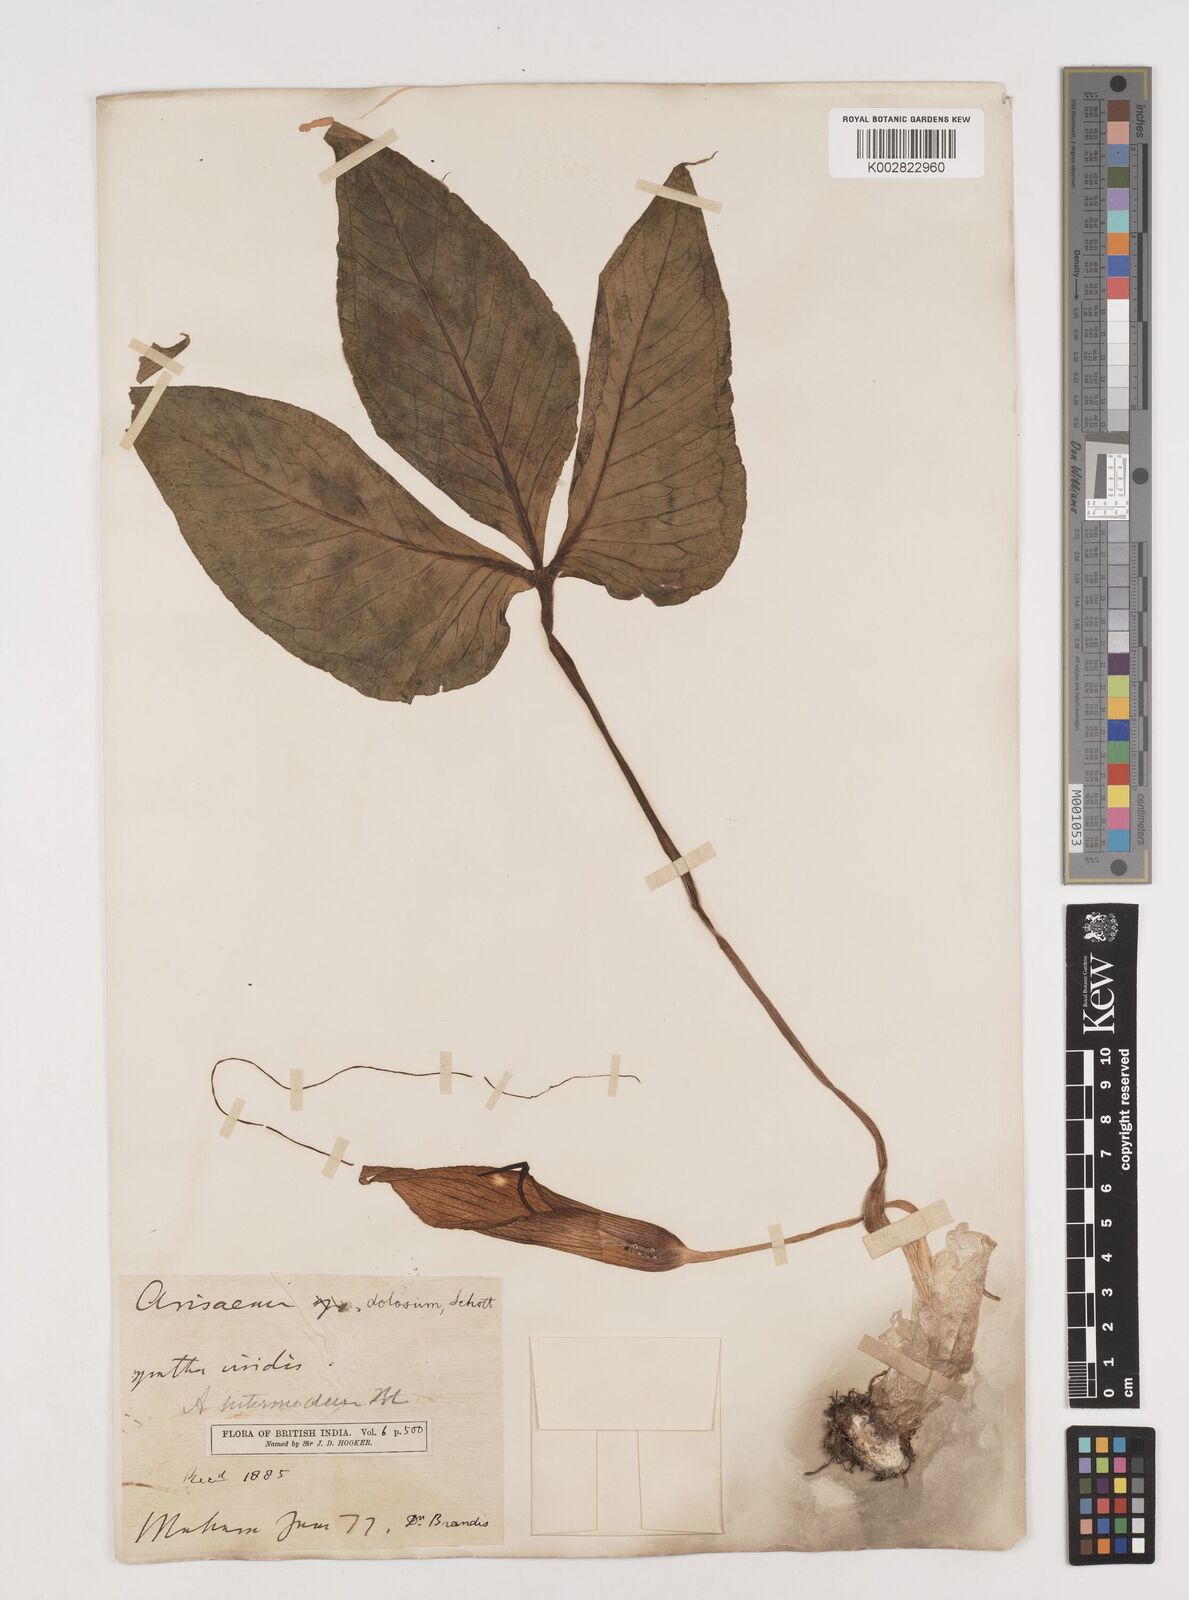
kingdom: Plantae
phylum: Tracheophyta
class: Liliopsida
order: Alismatales
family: Araceae
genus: Arisaema
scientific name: Arisaema intermedium
